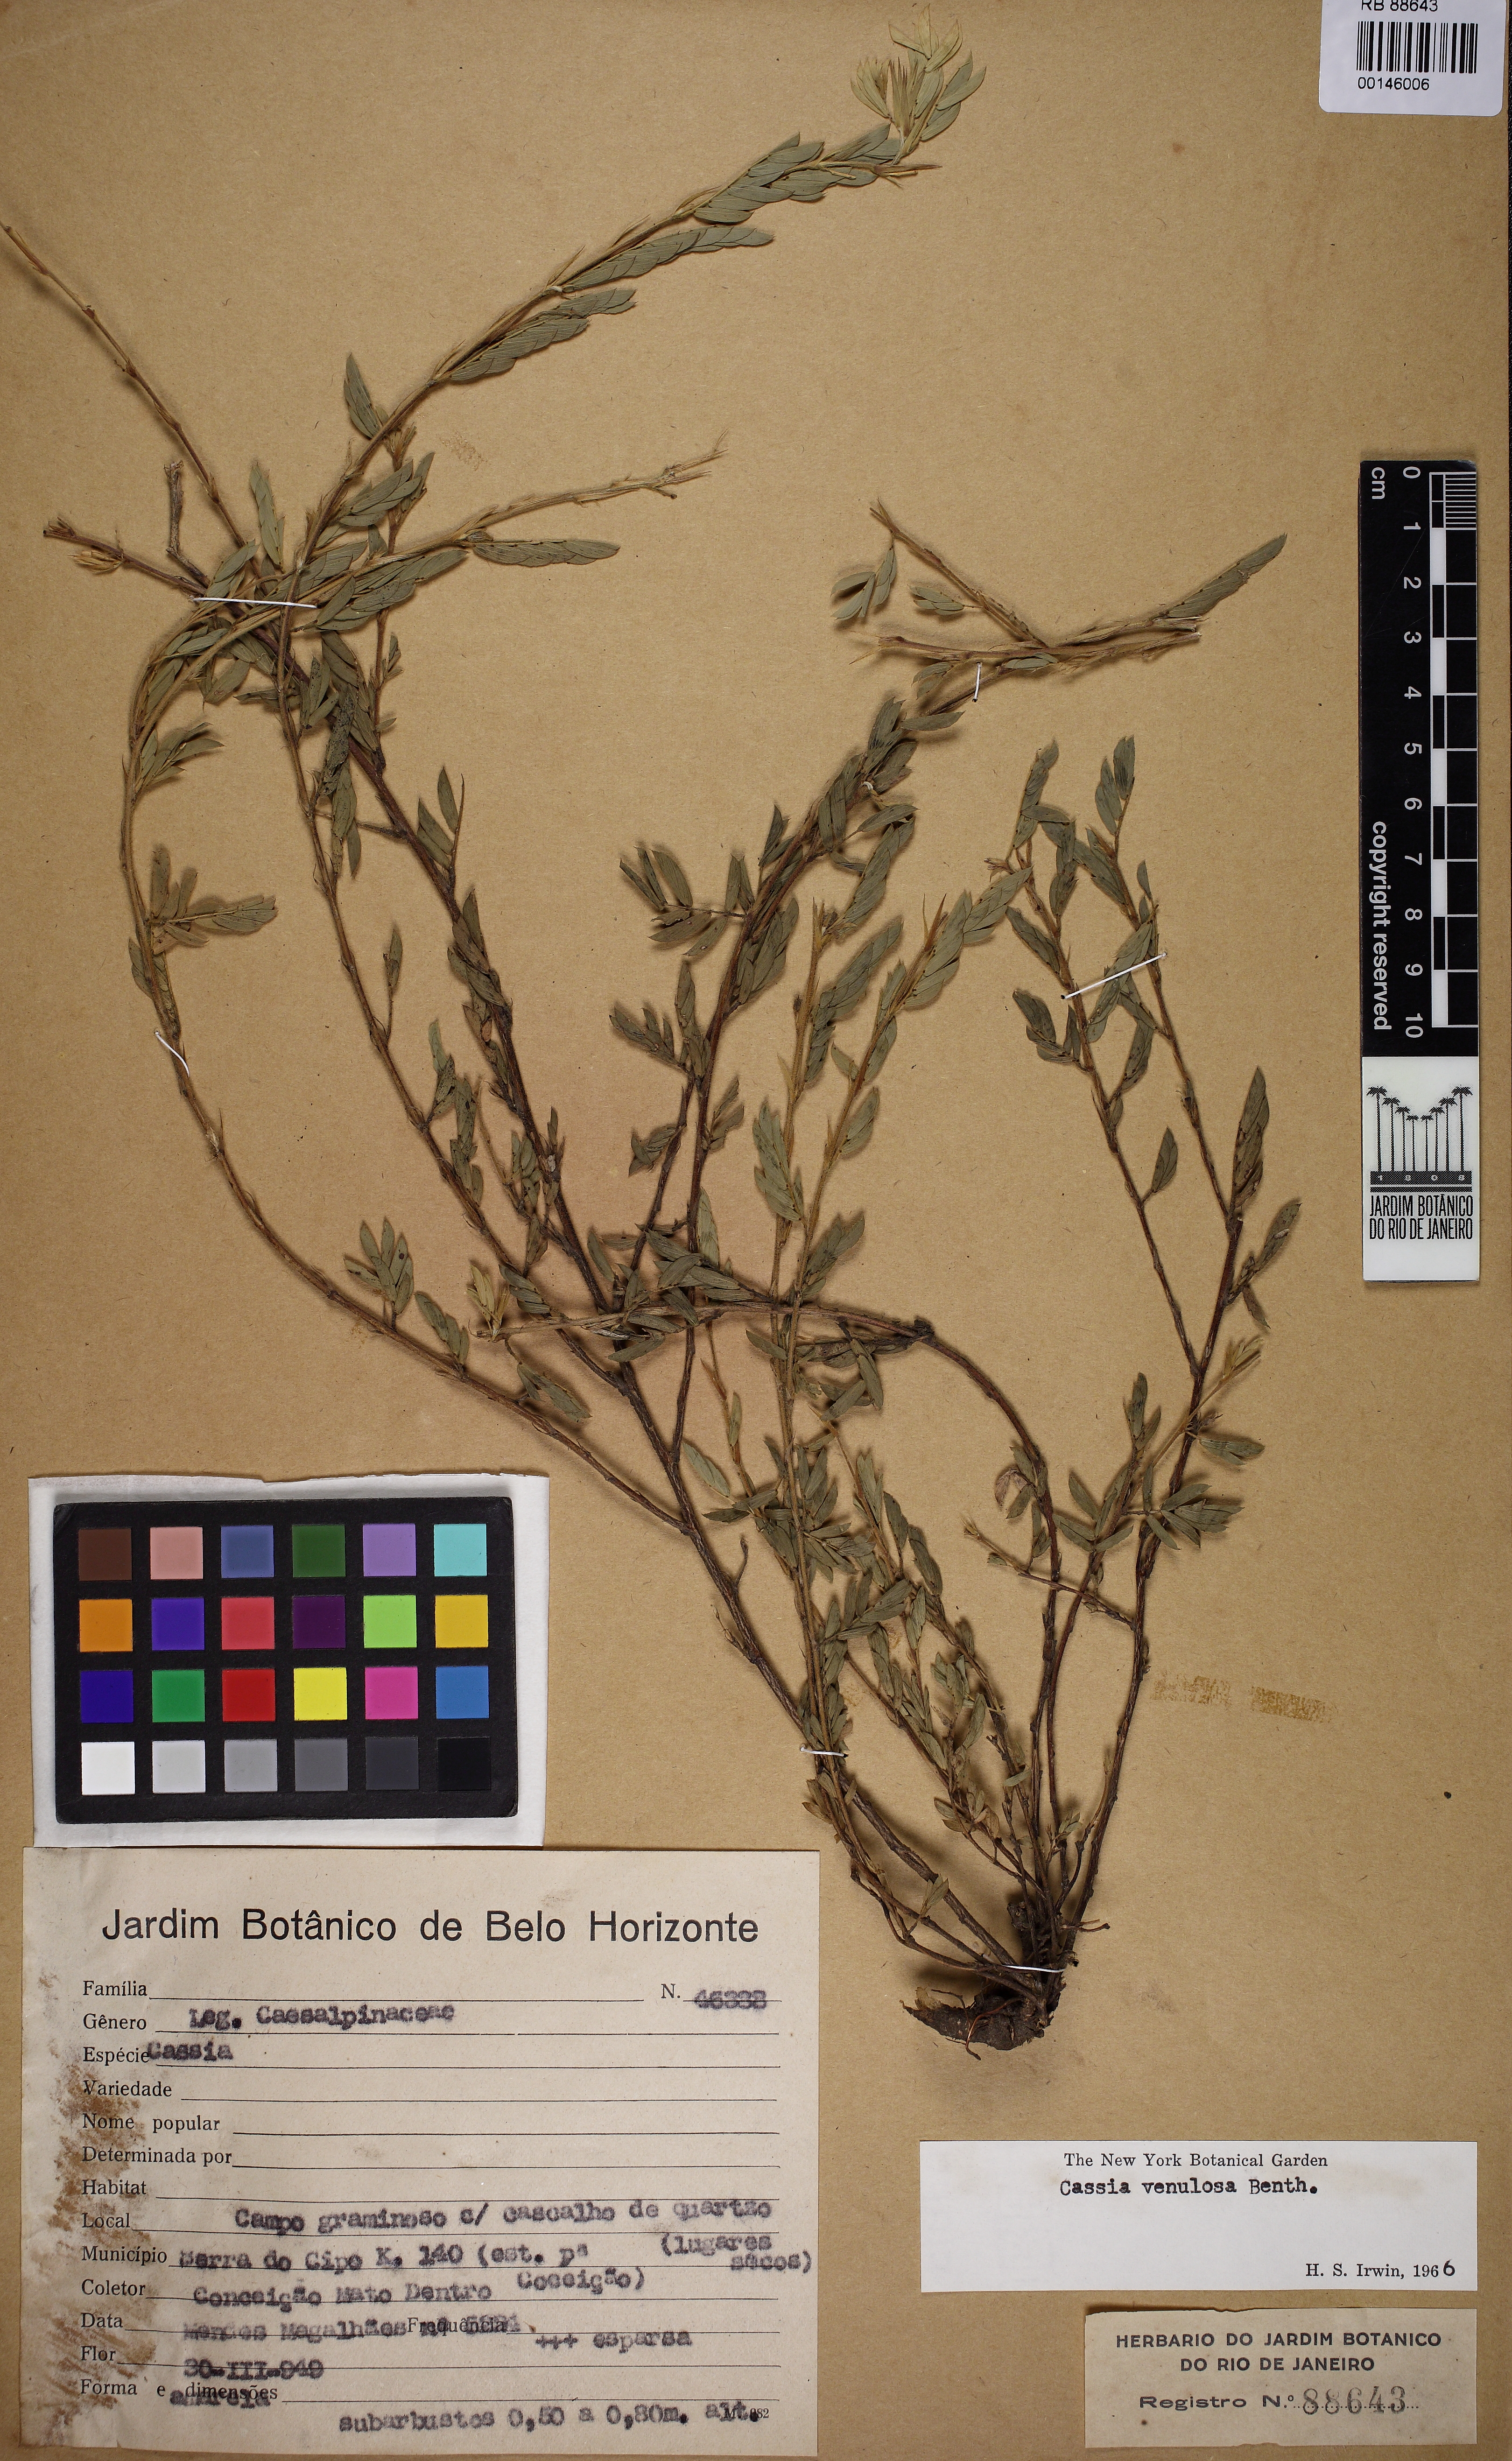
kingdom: Plantae
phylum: Tracheophyta
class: Magnoliopsida
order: Fabales
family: Fabaceae
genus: Chamaecrista
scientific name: Chamaecrista venulosa
